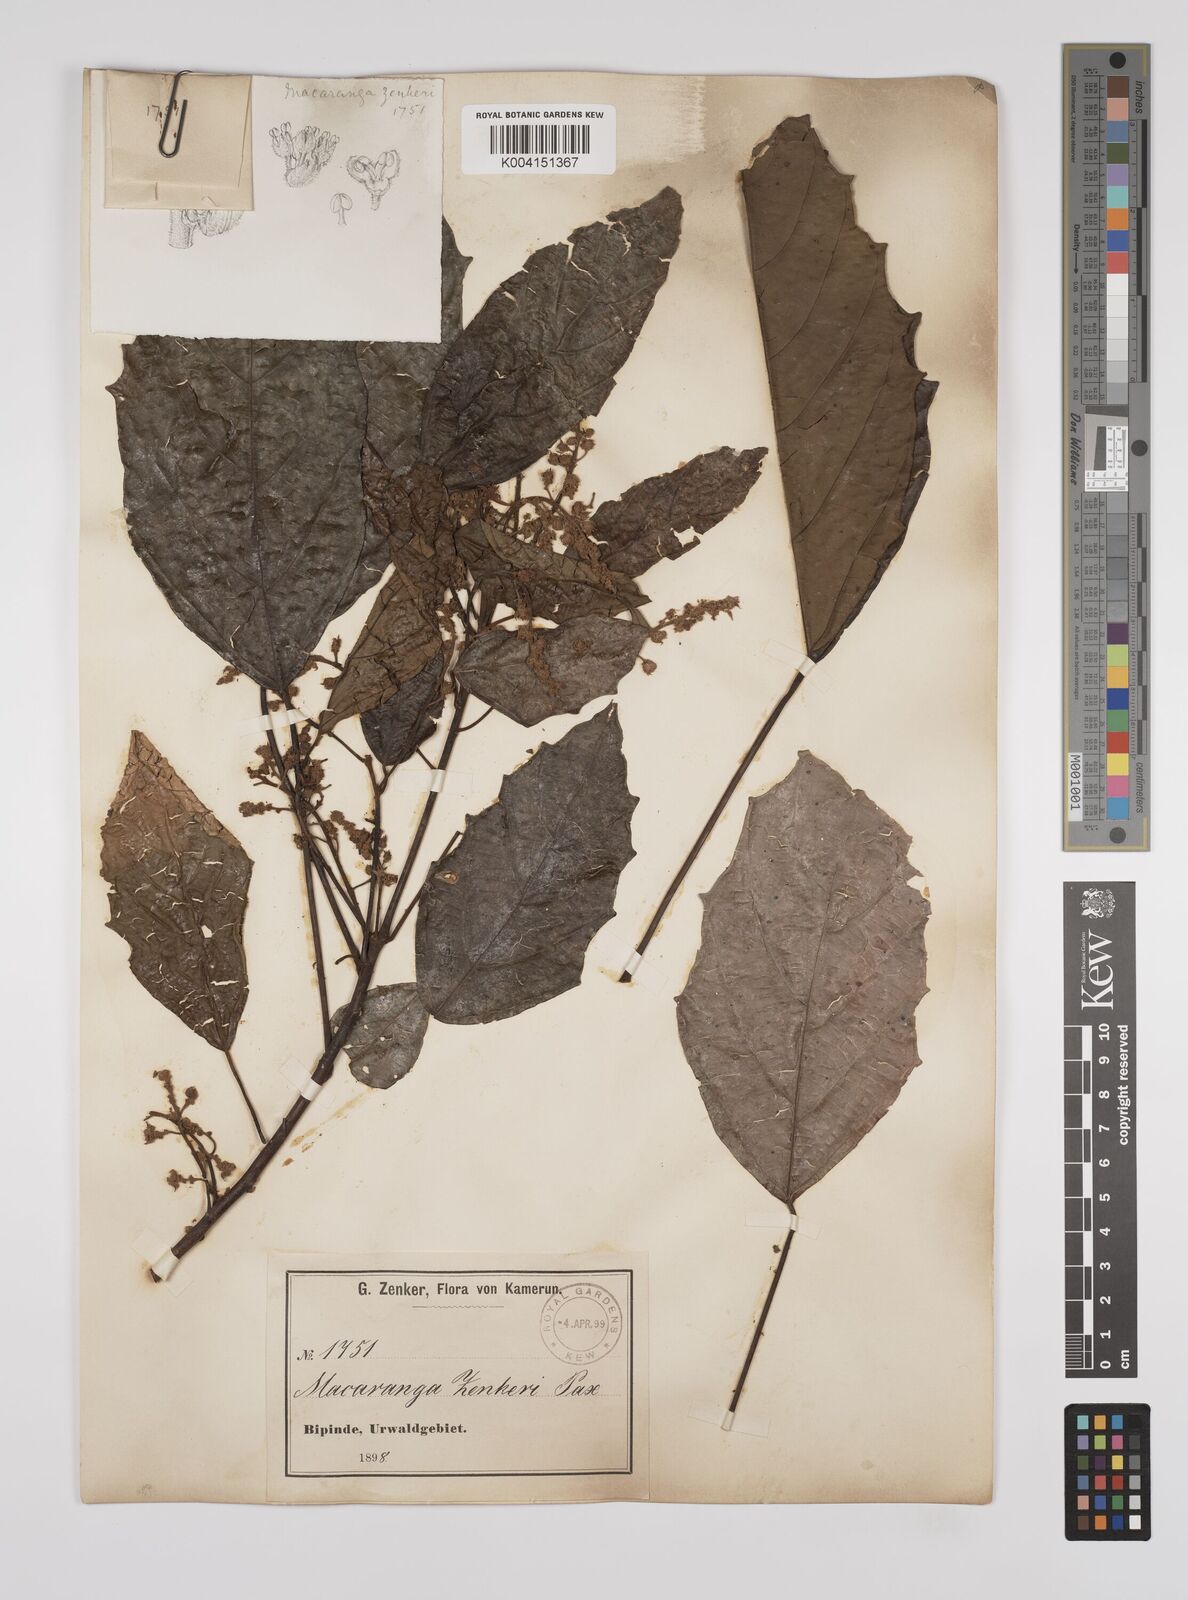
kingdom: Plantae
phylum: Tracheophyta
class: Magnoliopsida
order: Malpighiales
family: Euphorbiaceae
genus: Macaranga
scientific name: Macaranga monandra
